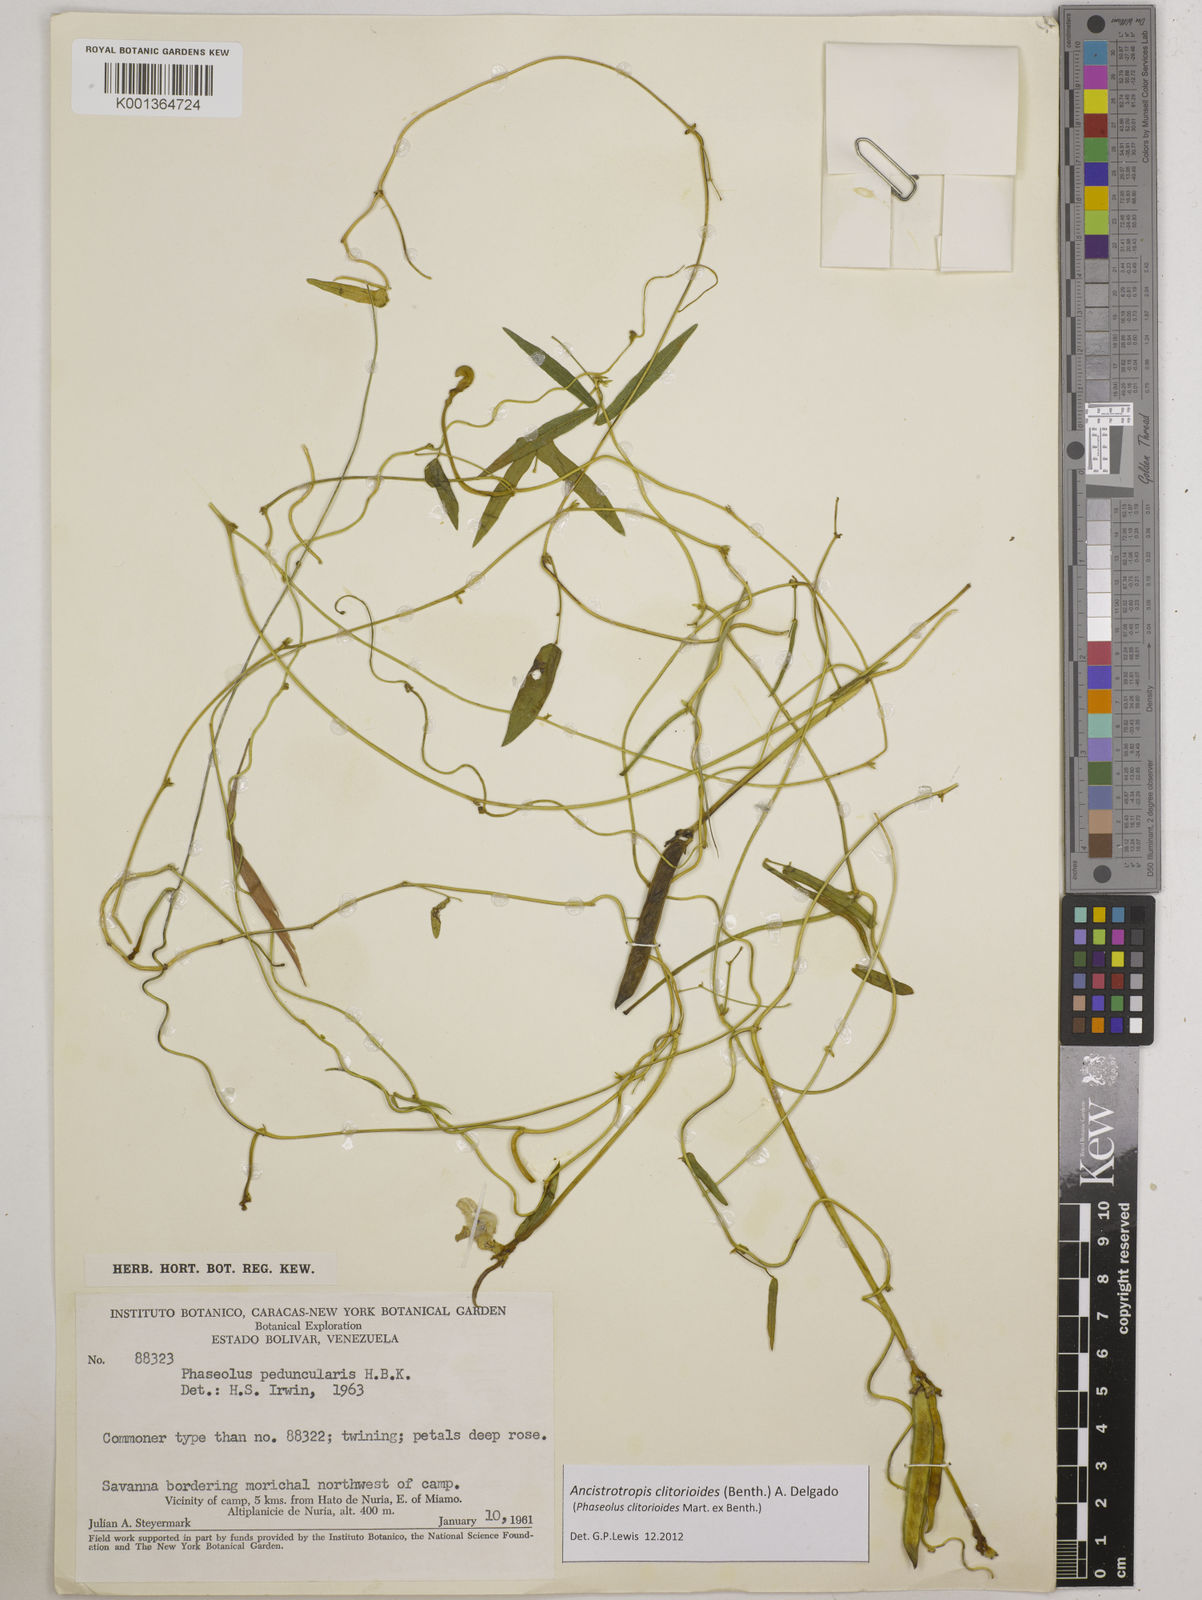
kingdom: Plantae
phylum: Tracheophyta
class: Magnoliopsida
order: Fabales
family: Fabaceae
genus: Ancistrotropis
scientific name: Ancistrotropis clitorioides
